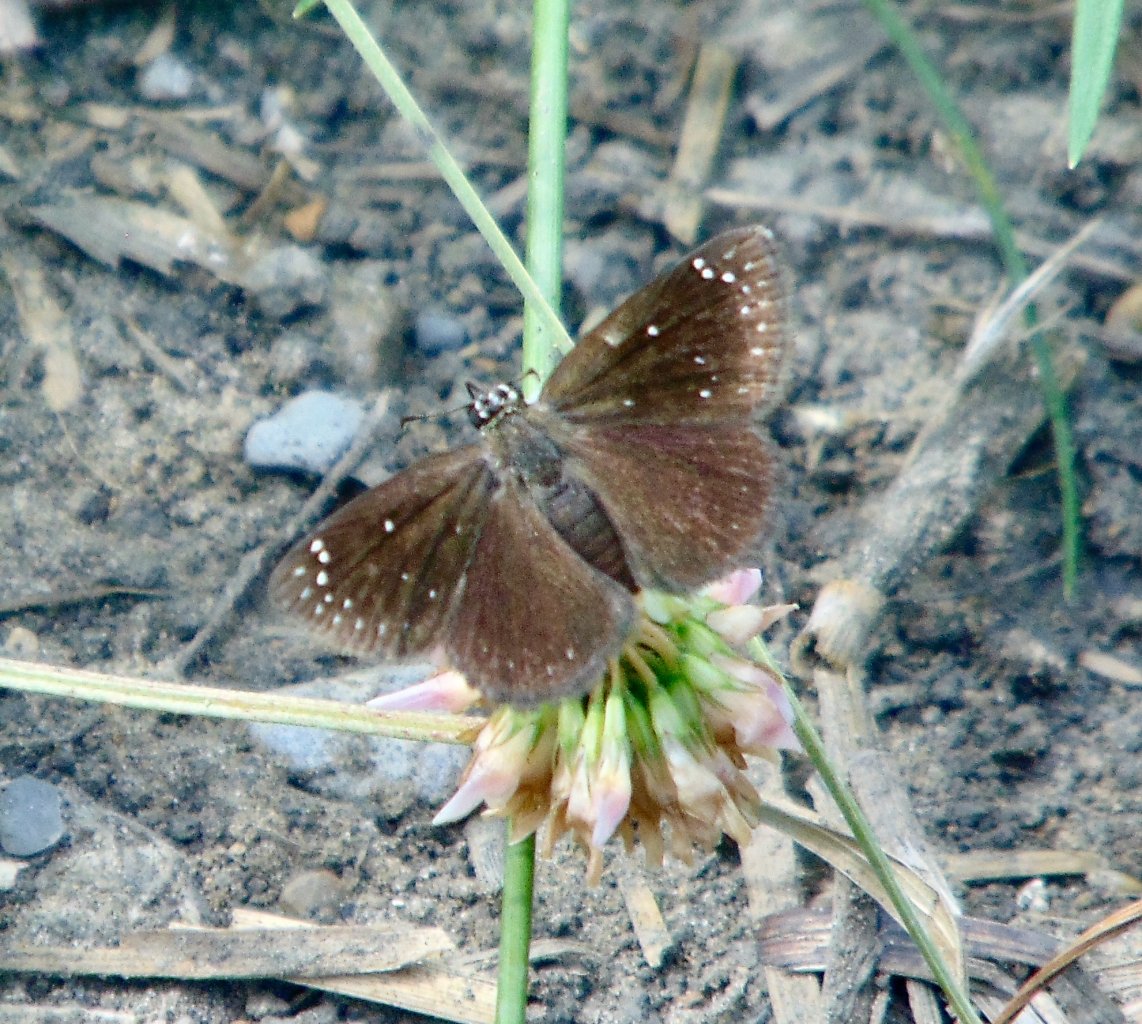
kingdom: Animalia
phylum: Arthropoda
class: Insecta
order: Lepidoptera
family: Hesperiidae
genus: Pholisora
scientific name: Pholisora catullus
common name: Common Sootywing
